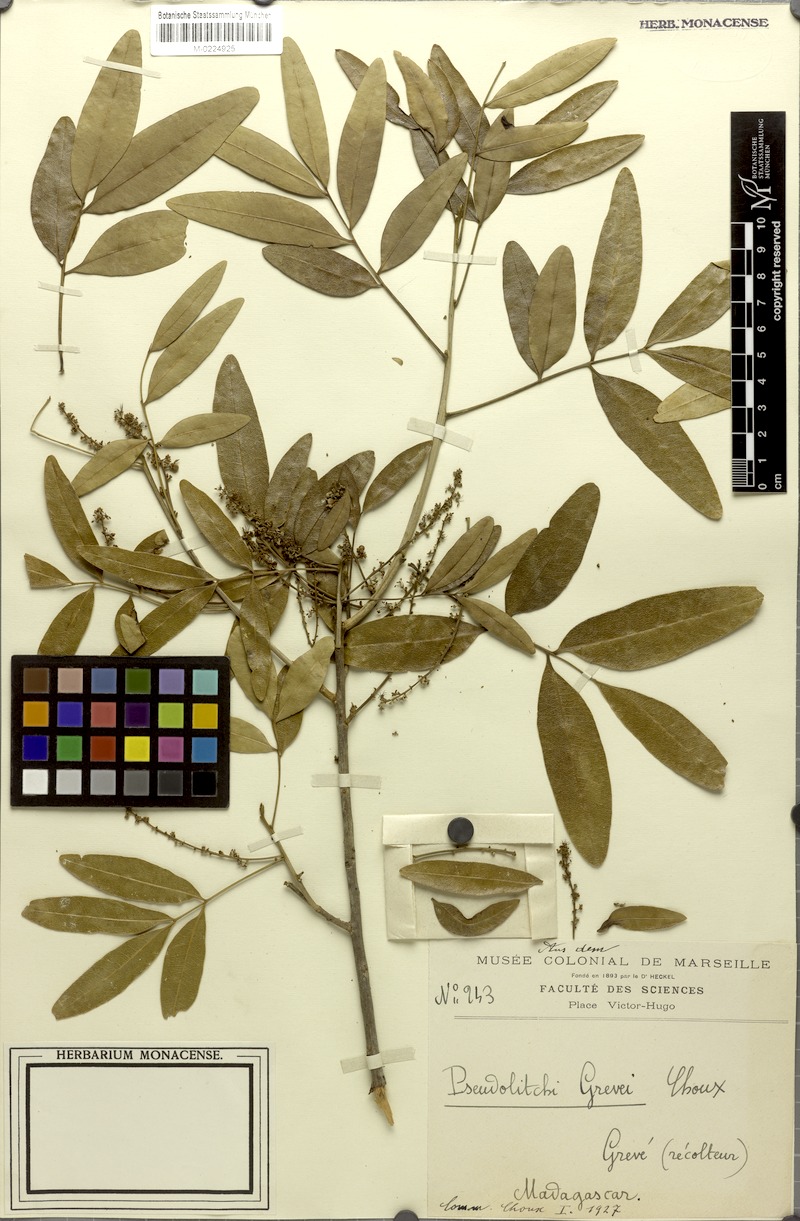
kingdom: Plantae
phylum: Tracheophyta
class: Magnoliopsida
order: Sapindales
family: Sapindaceae
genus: Stadmannia
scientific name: Stadmannia oppositifolia
